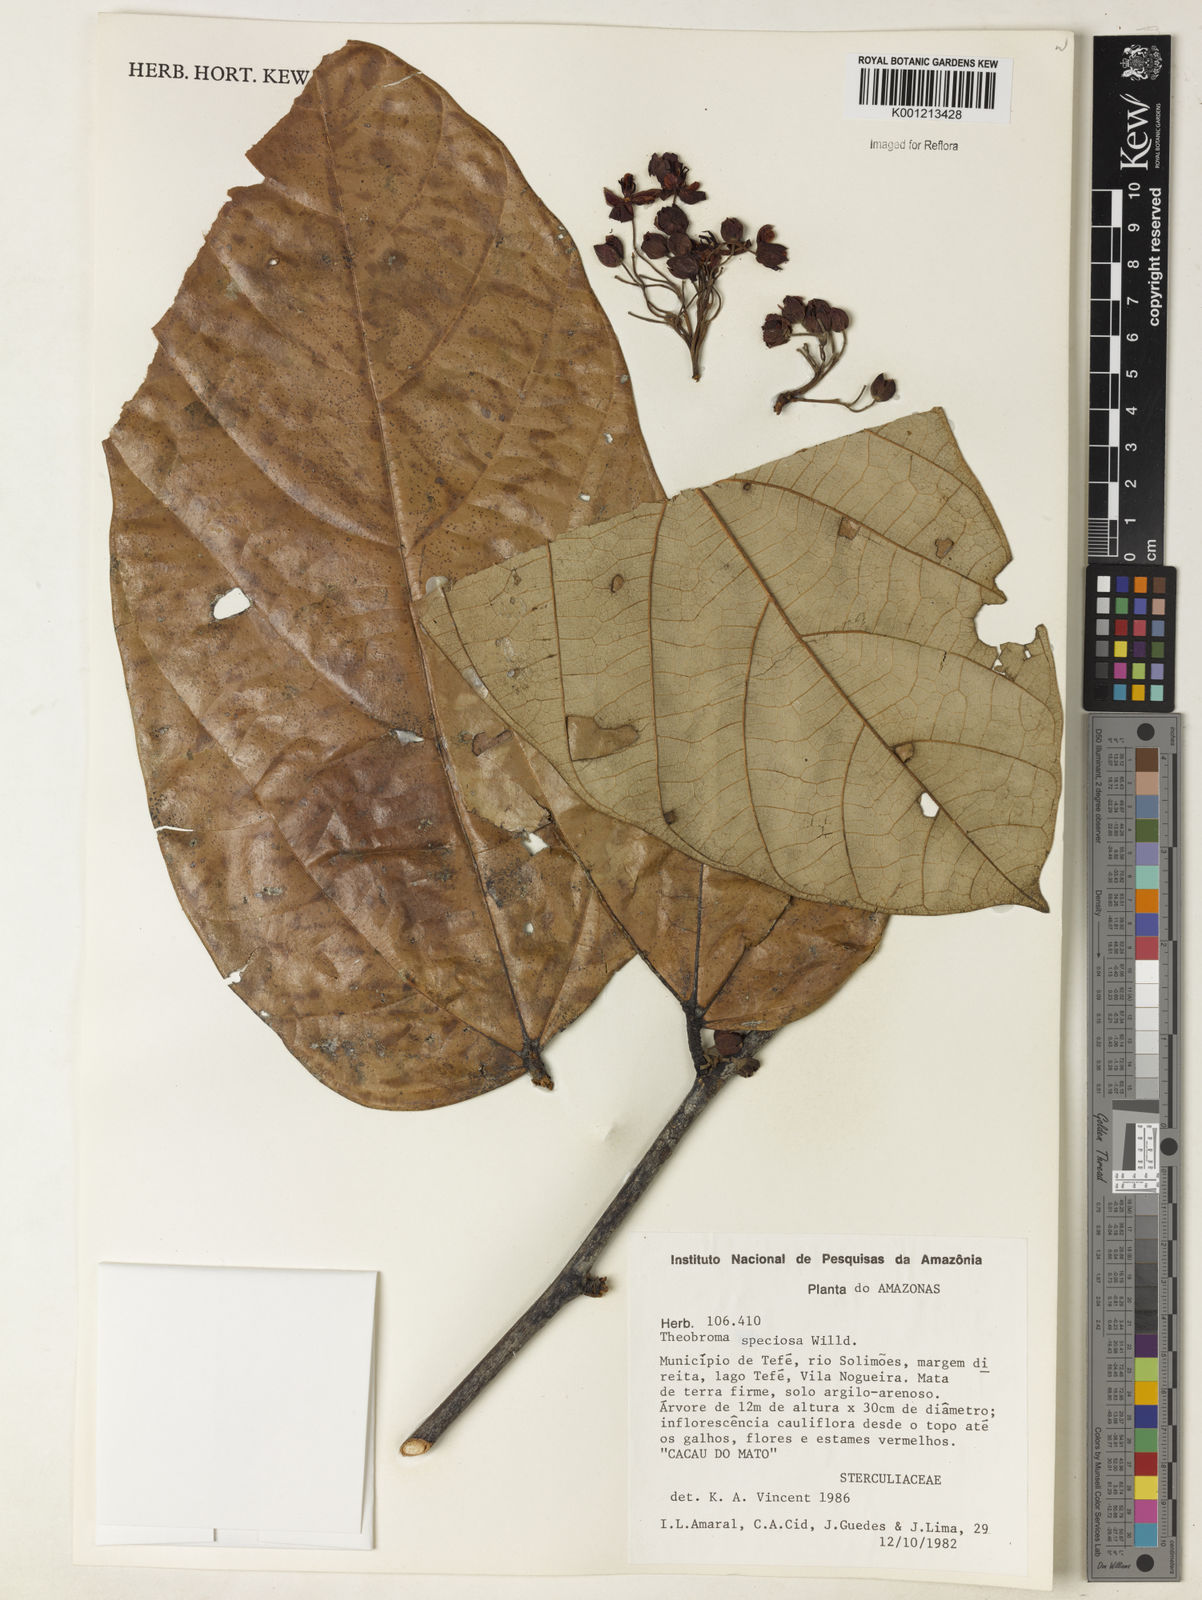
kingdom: Plantae
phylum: Tracheophyta
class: Magnoliopsida
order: Malvales
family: Malvaceae
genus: Theobroma
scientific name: Theobroma speciosum
